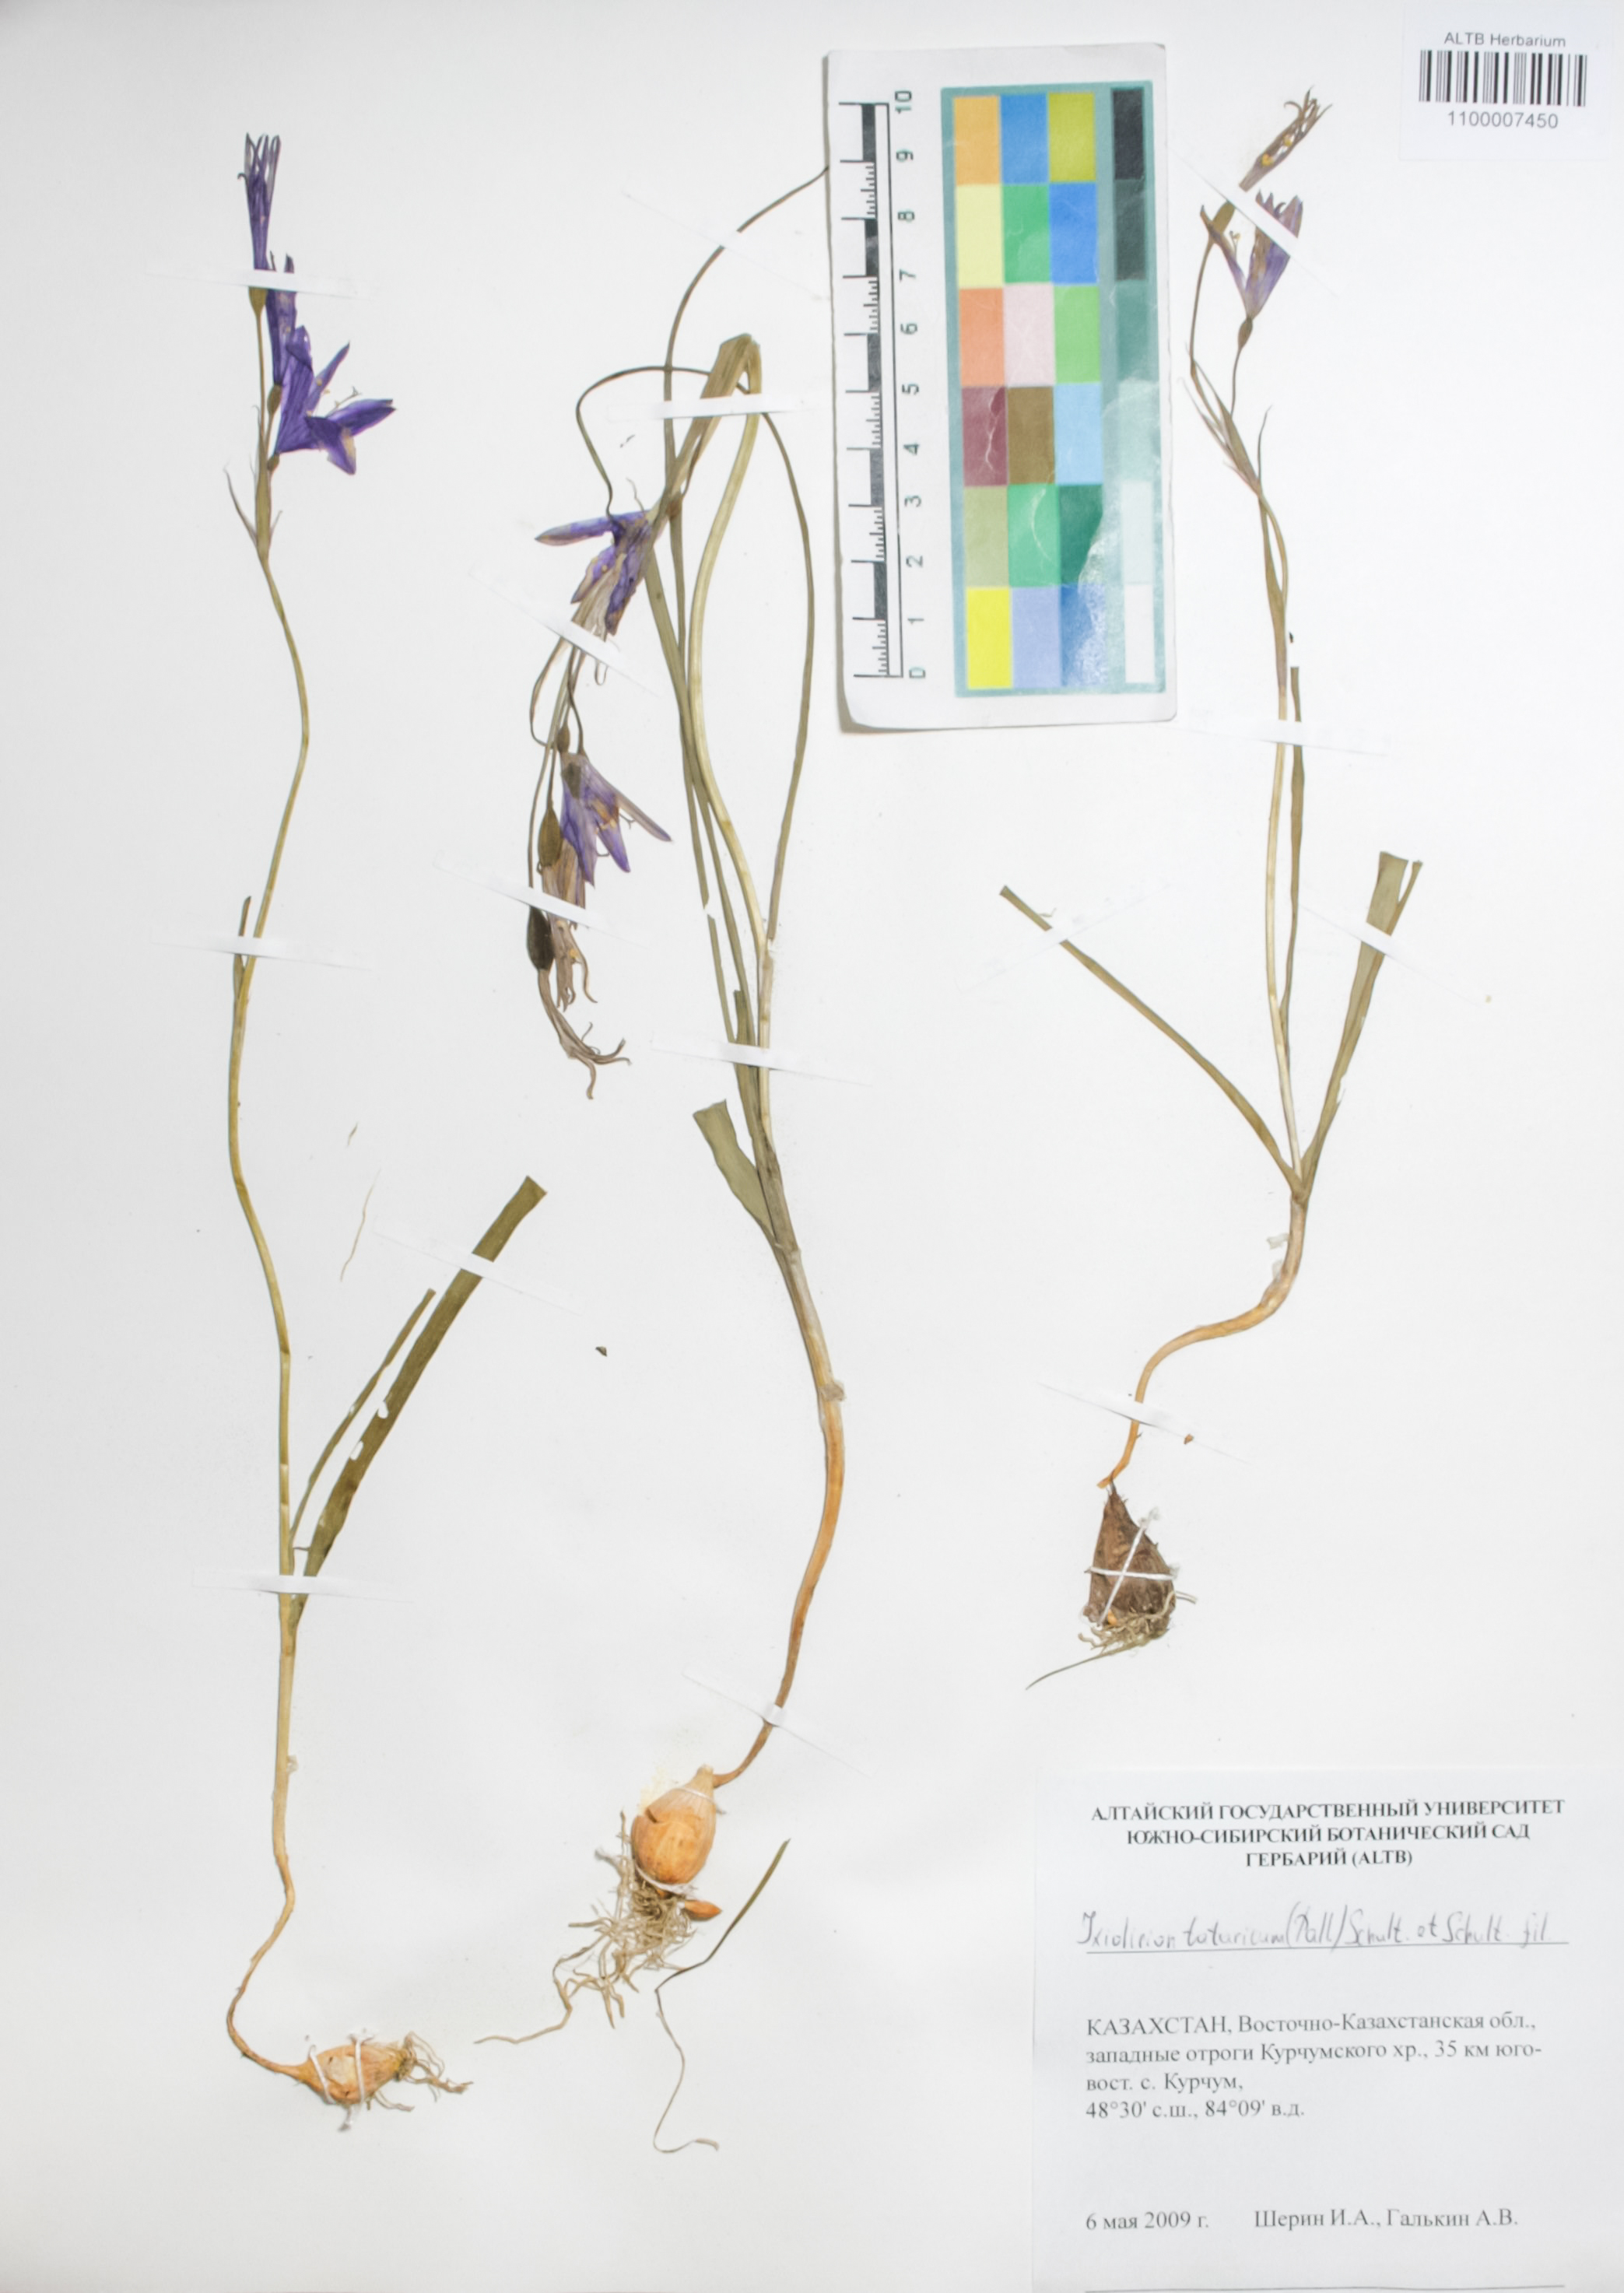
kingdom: Plantae
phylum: Tracheophyta
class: Liliopsida
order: Asparagales
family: Ixioliriaceae
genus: Ixiolirion
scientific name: Ixiolirion tataricum
